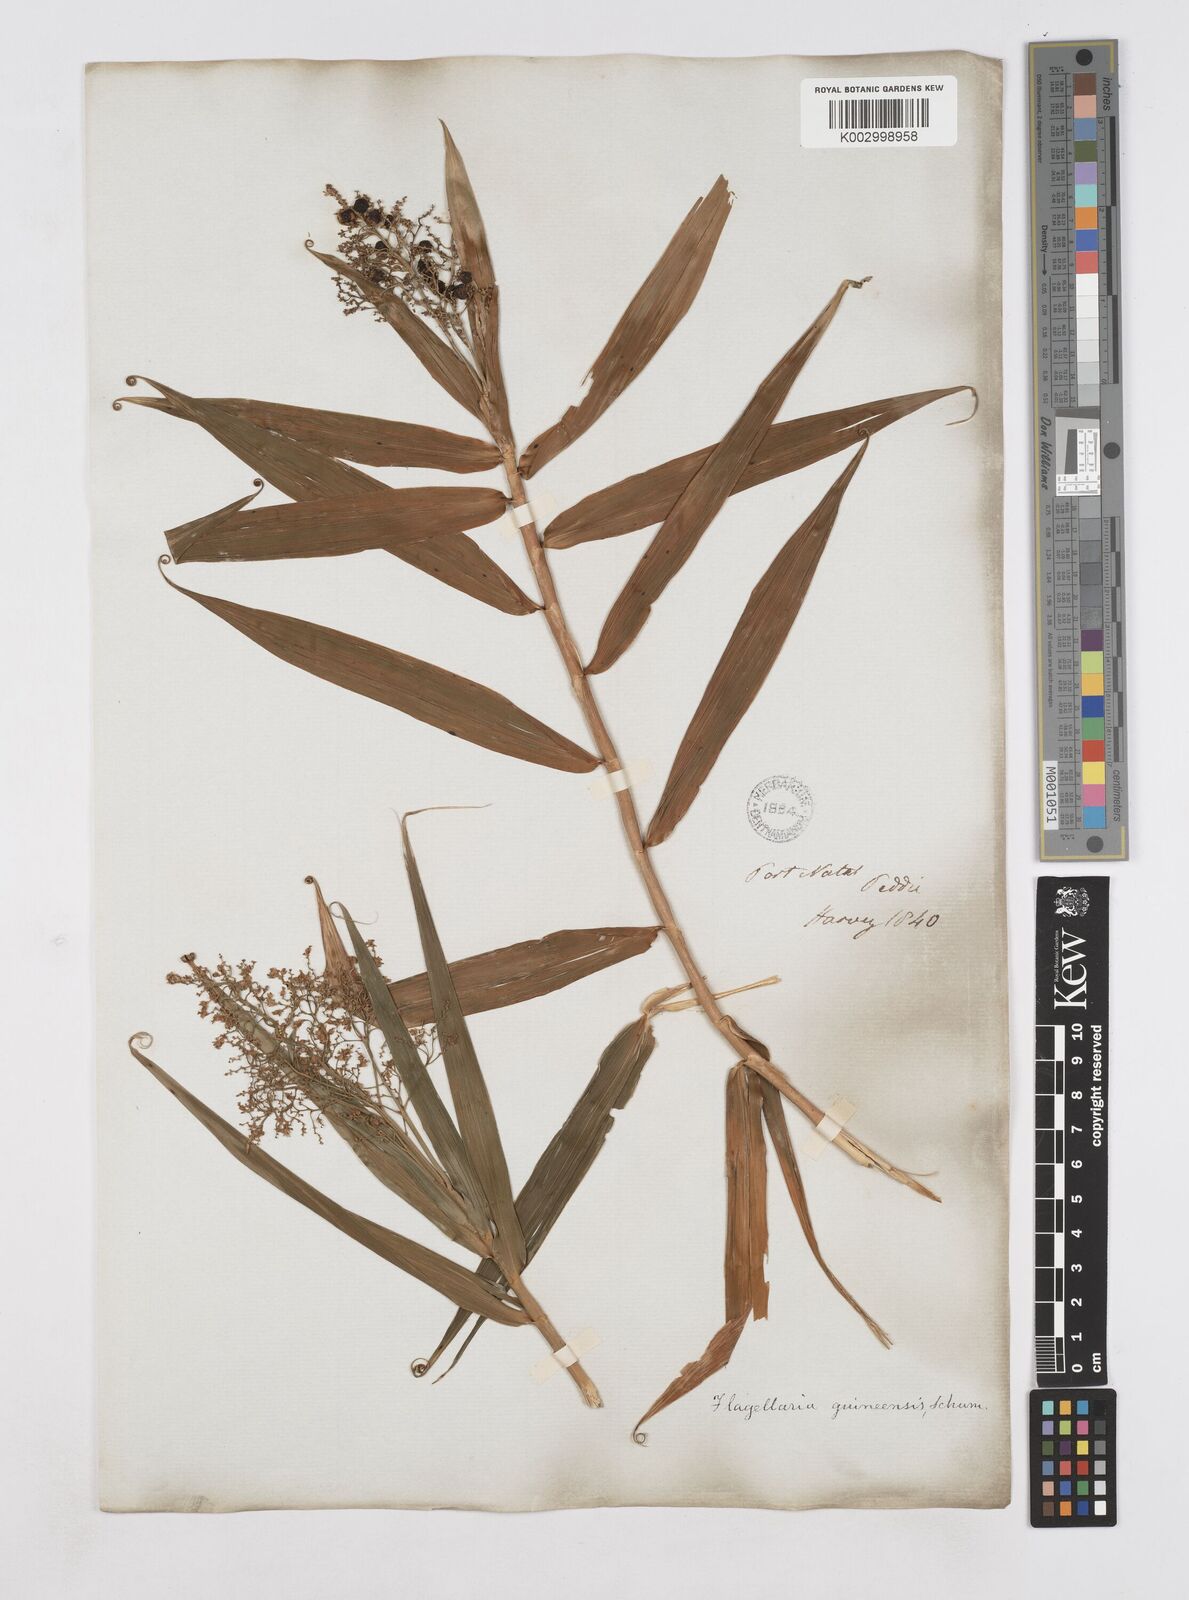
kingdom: Plantae
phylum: Tracheophyta
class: Liliopsida
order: Poales
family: Flagellariaceae
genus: Flagellaria
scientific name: Flagellaria guineensis
